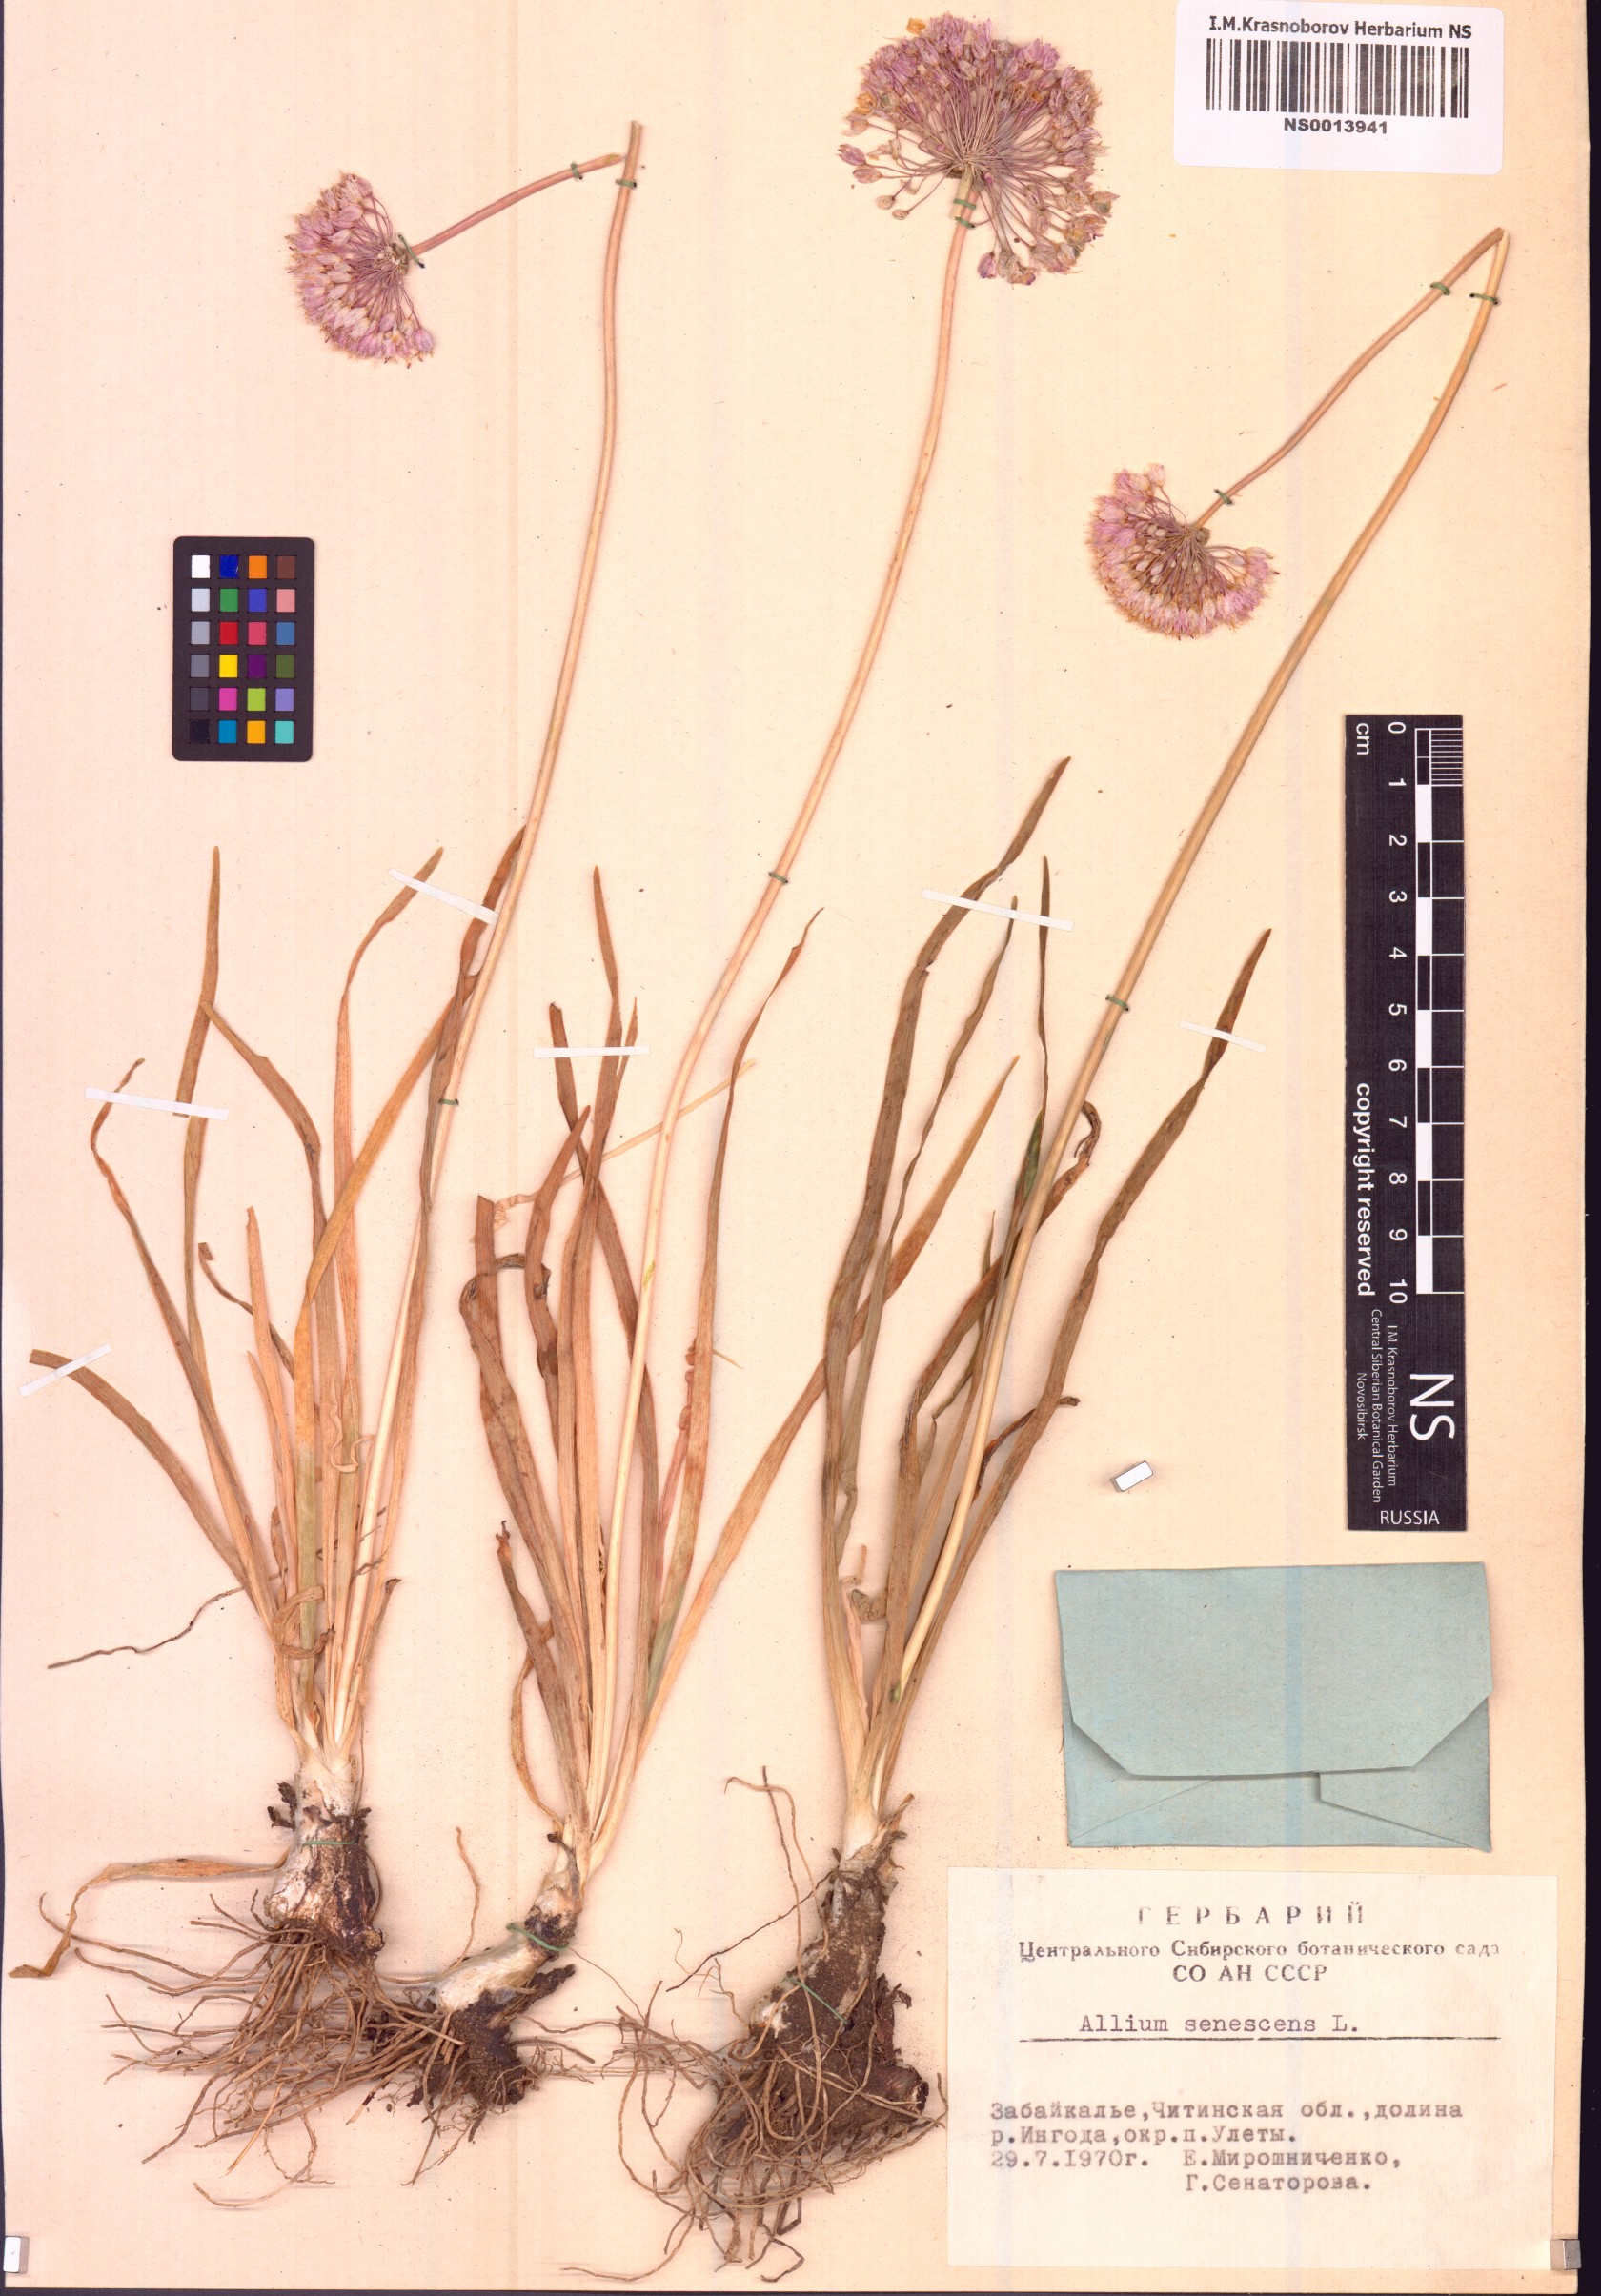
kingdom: Plantae
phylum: Tracheophyta
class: Liliopsida
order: Asparagales
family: Amaryllidaceae
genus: Allium
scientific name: Allium senescens
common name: German garlic
